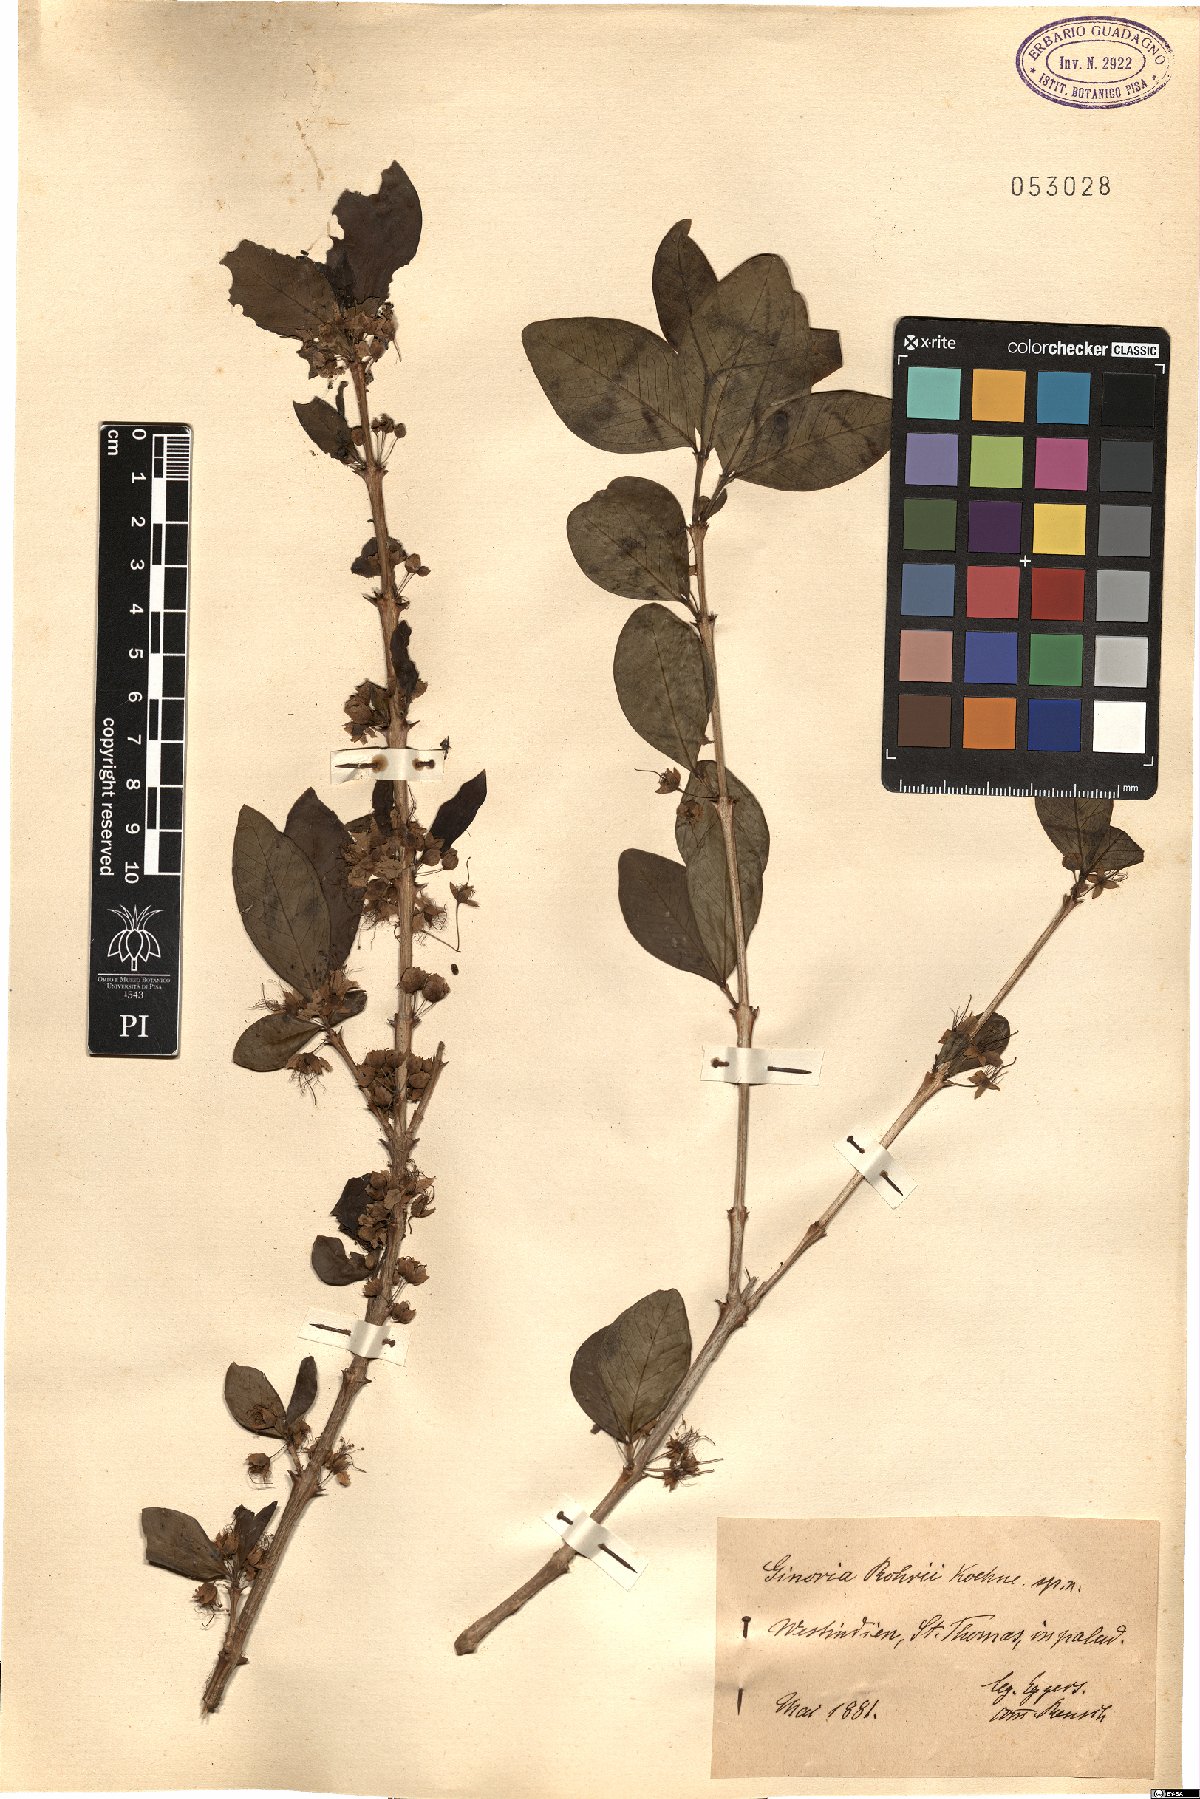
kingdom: Plantae
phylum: Tracheophyta
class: Magnoliopsida
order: Myrtales
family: Lythraceae
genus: Ginoria
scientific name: Ginoria rohrii
